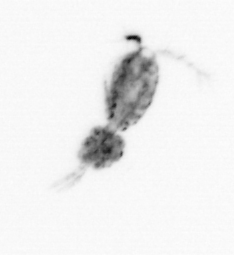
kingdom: Animalia
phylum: Arthropoda
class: Copepoda
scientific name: Copepoda
